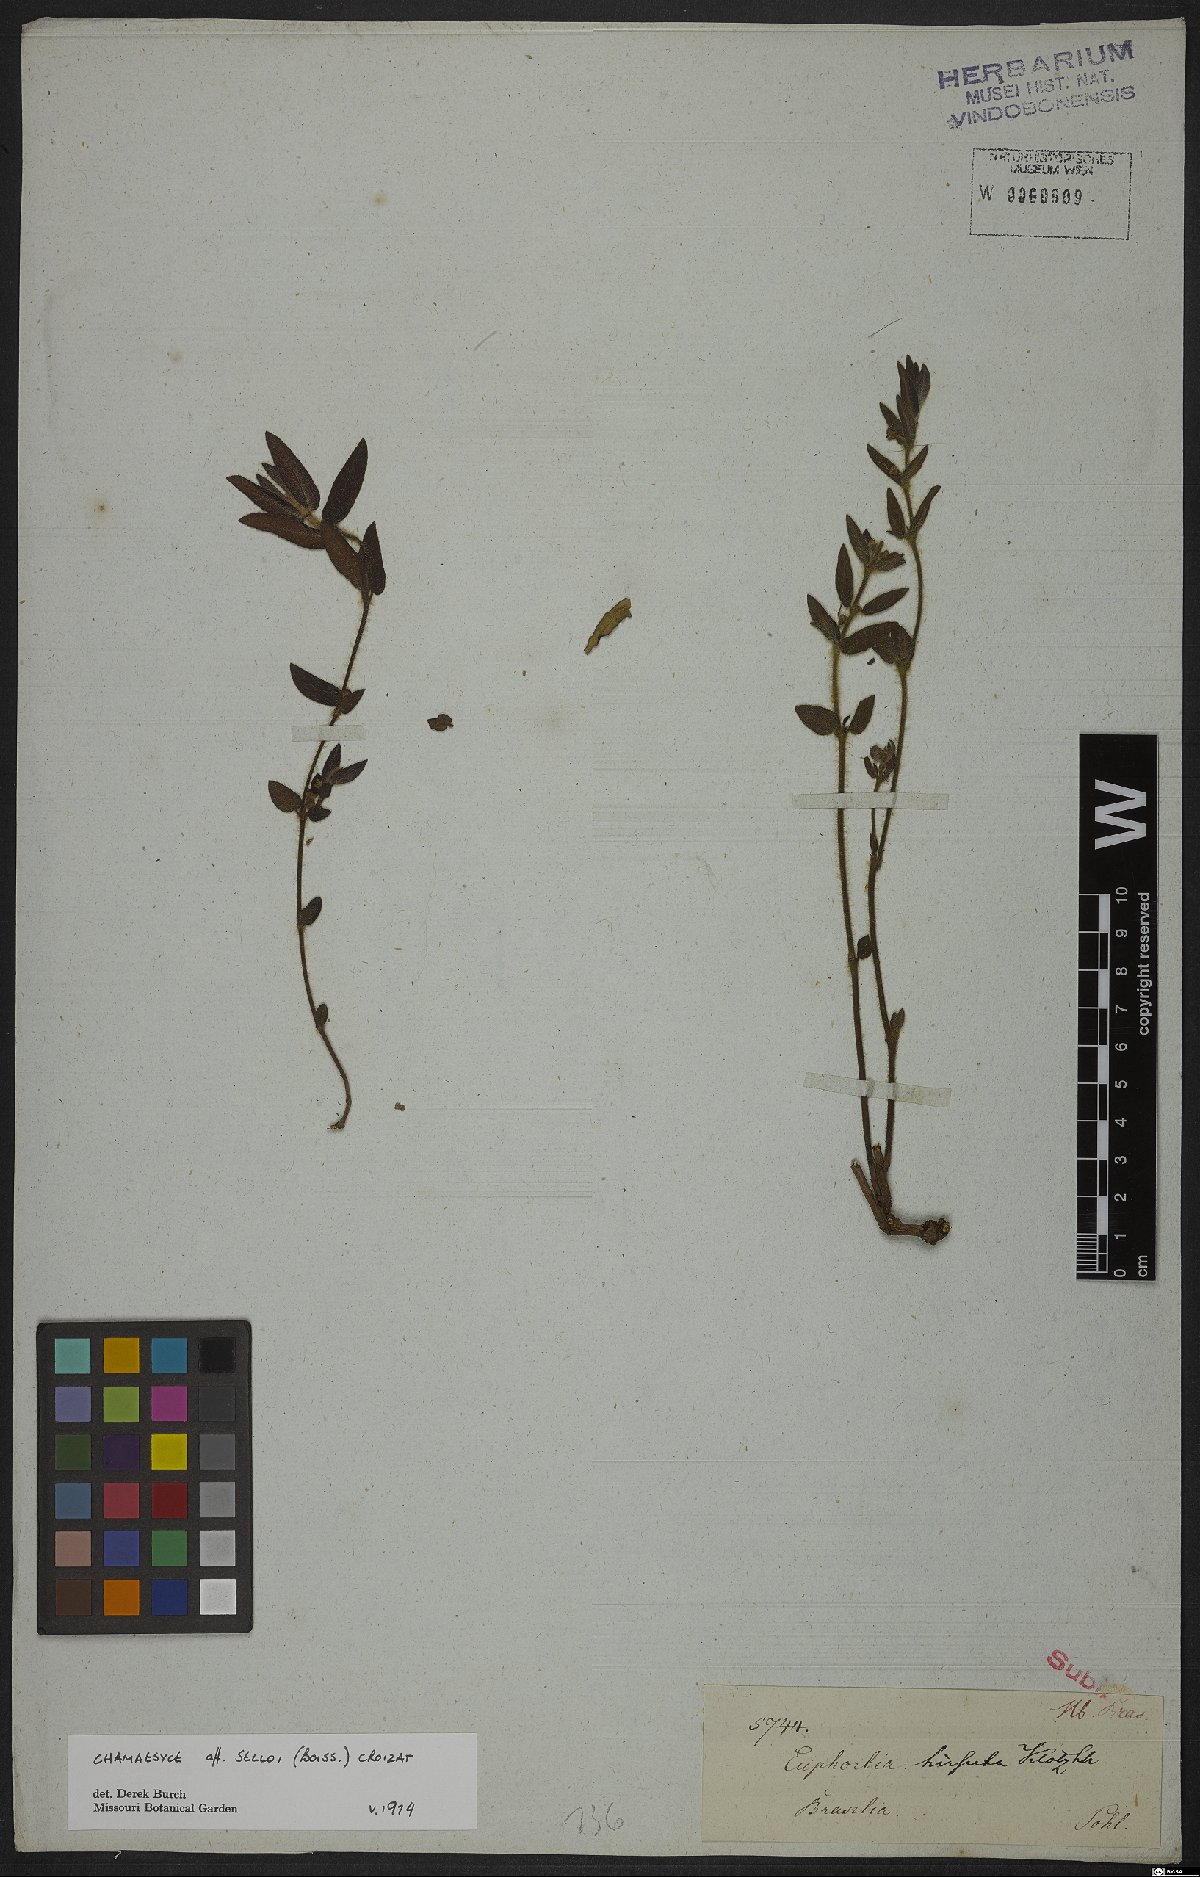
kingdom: Plantae
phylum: Tracheophyta
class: Magnoliopsida
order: Malpighiales
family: Euphorbiaceae
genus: Euphorbia
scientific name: Euphorbia selloi
